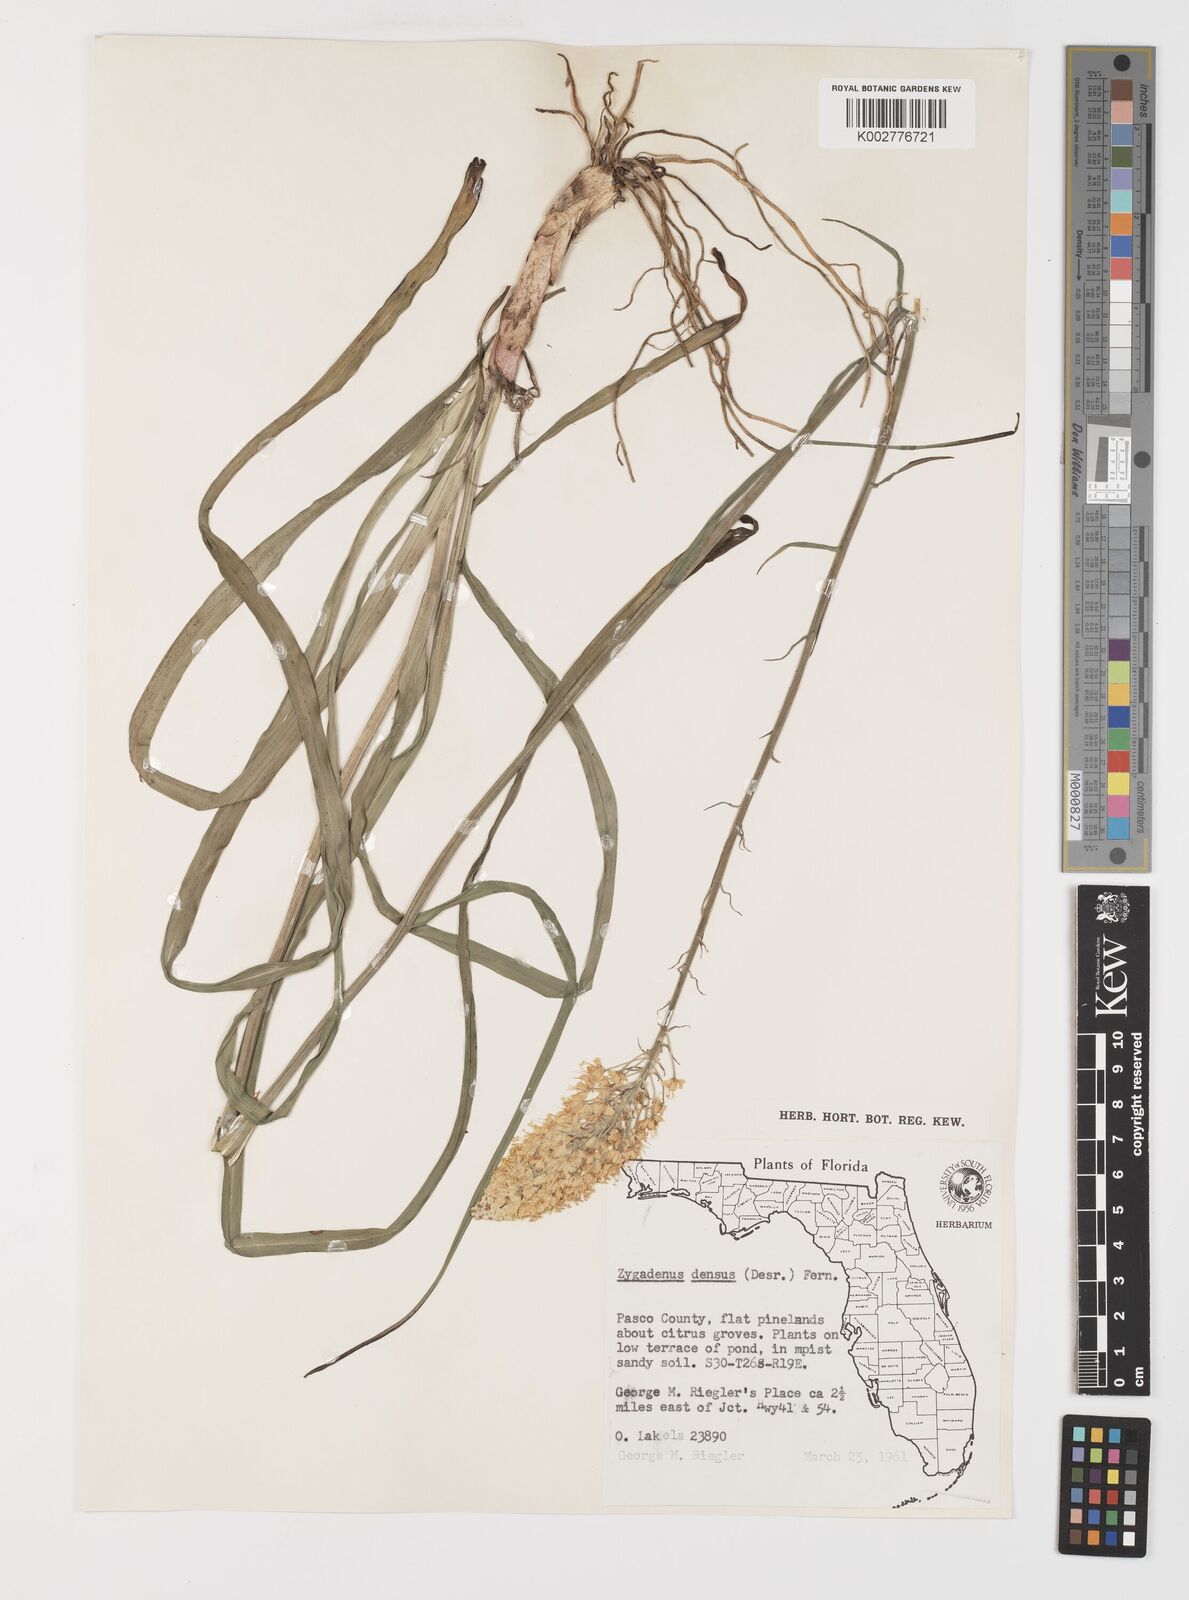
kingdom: Plantae
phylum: Tracheophyta
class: Liliopsida
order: Liliales
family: Melanthiaceae
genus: Stenanthium
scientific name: Stenanthium densum
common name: Crow-poison
